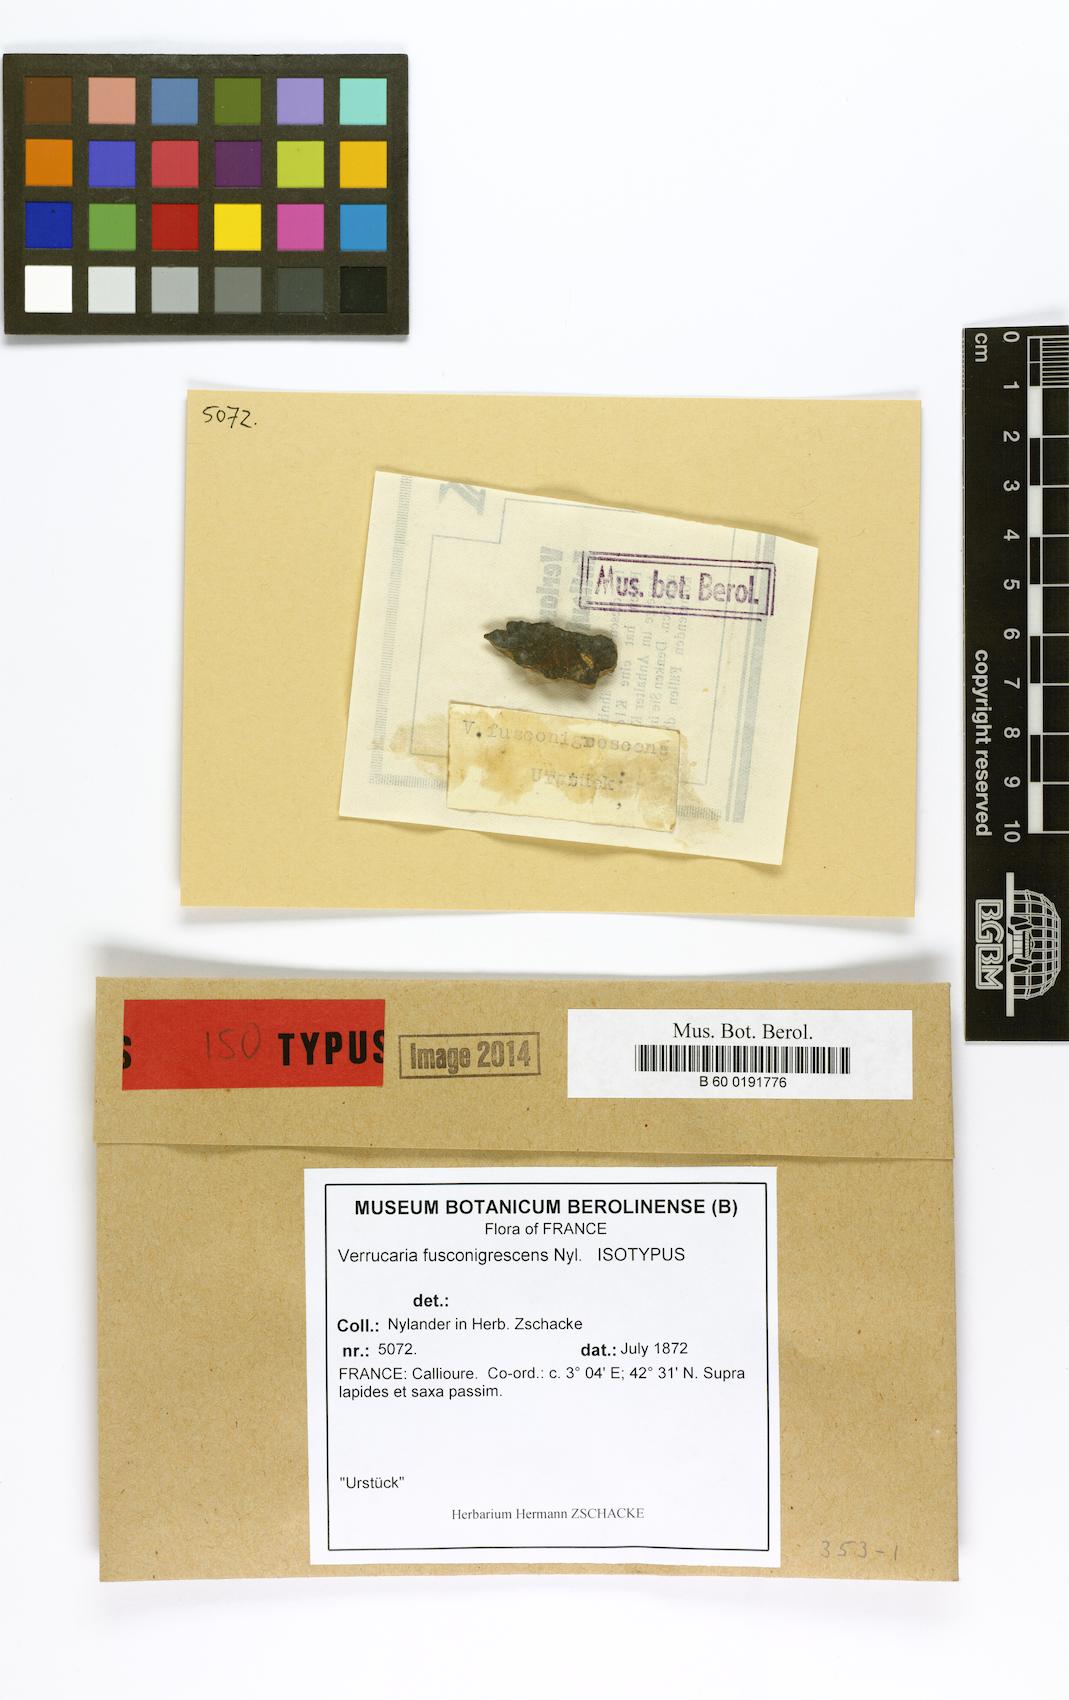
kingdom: Fungi
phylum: Ascomycota
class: Eurotiomycetes
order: Verrucariales
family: Verrucariaceae
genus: Verrucaria
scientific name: Verrucaria fusconigrescens
